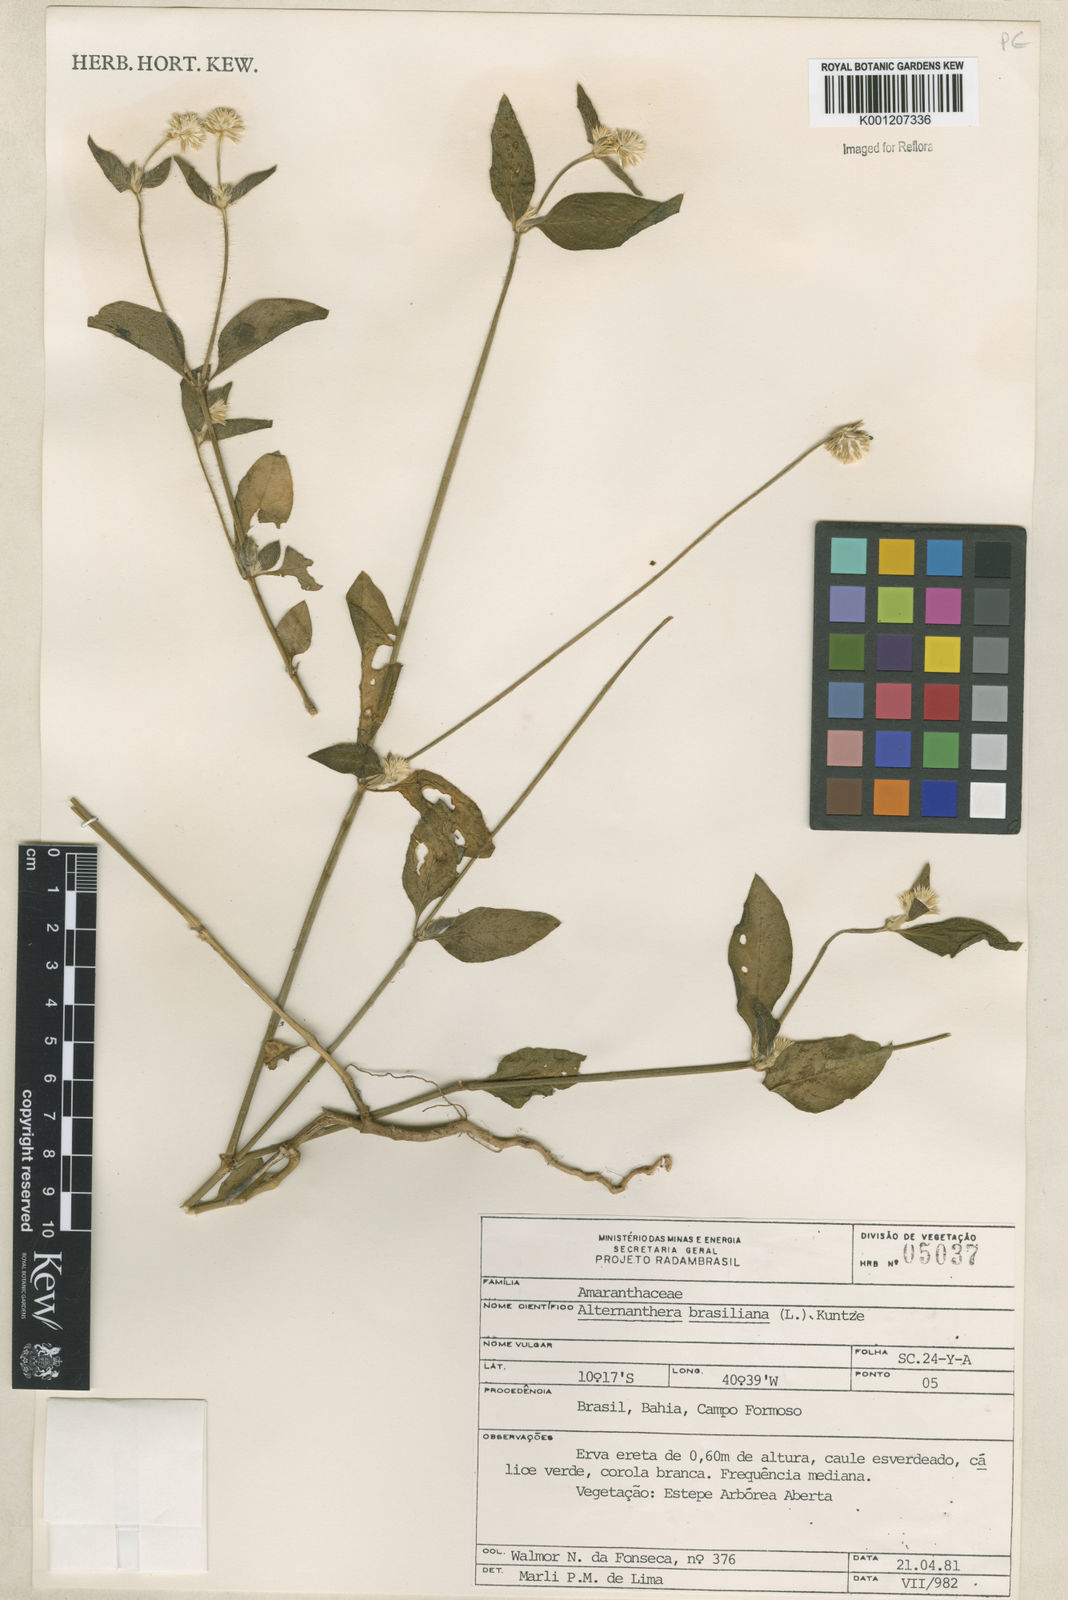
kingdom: Plantae
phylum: Tracheophyta
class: Magnoliopsida
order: Caryophyllales
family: Amaranthaceae
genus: Alternanthera
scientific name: Alternanthera brasiliana
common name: Brazilian joyweed
